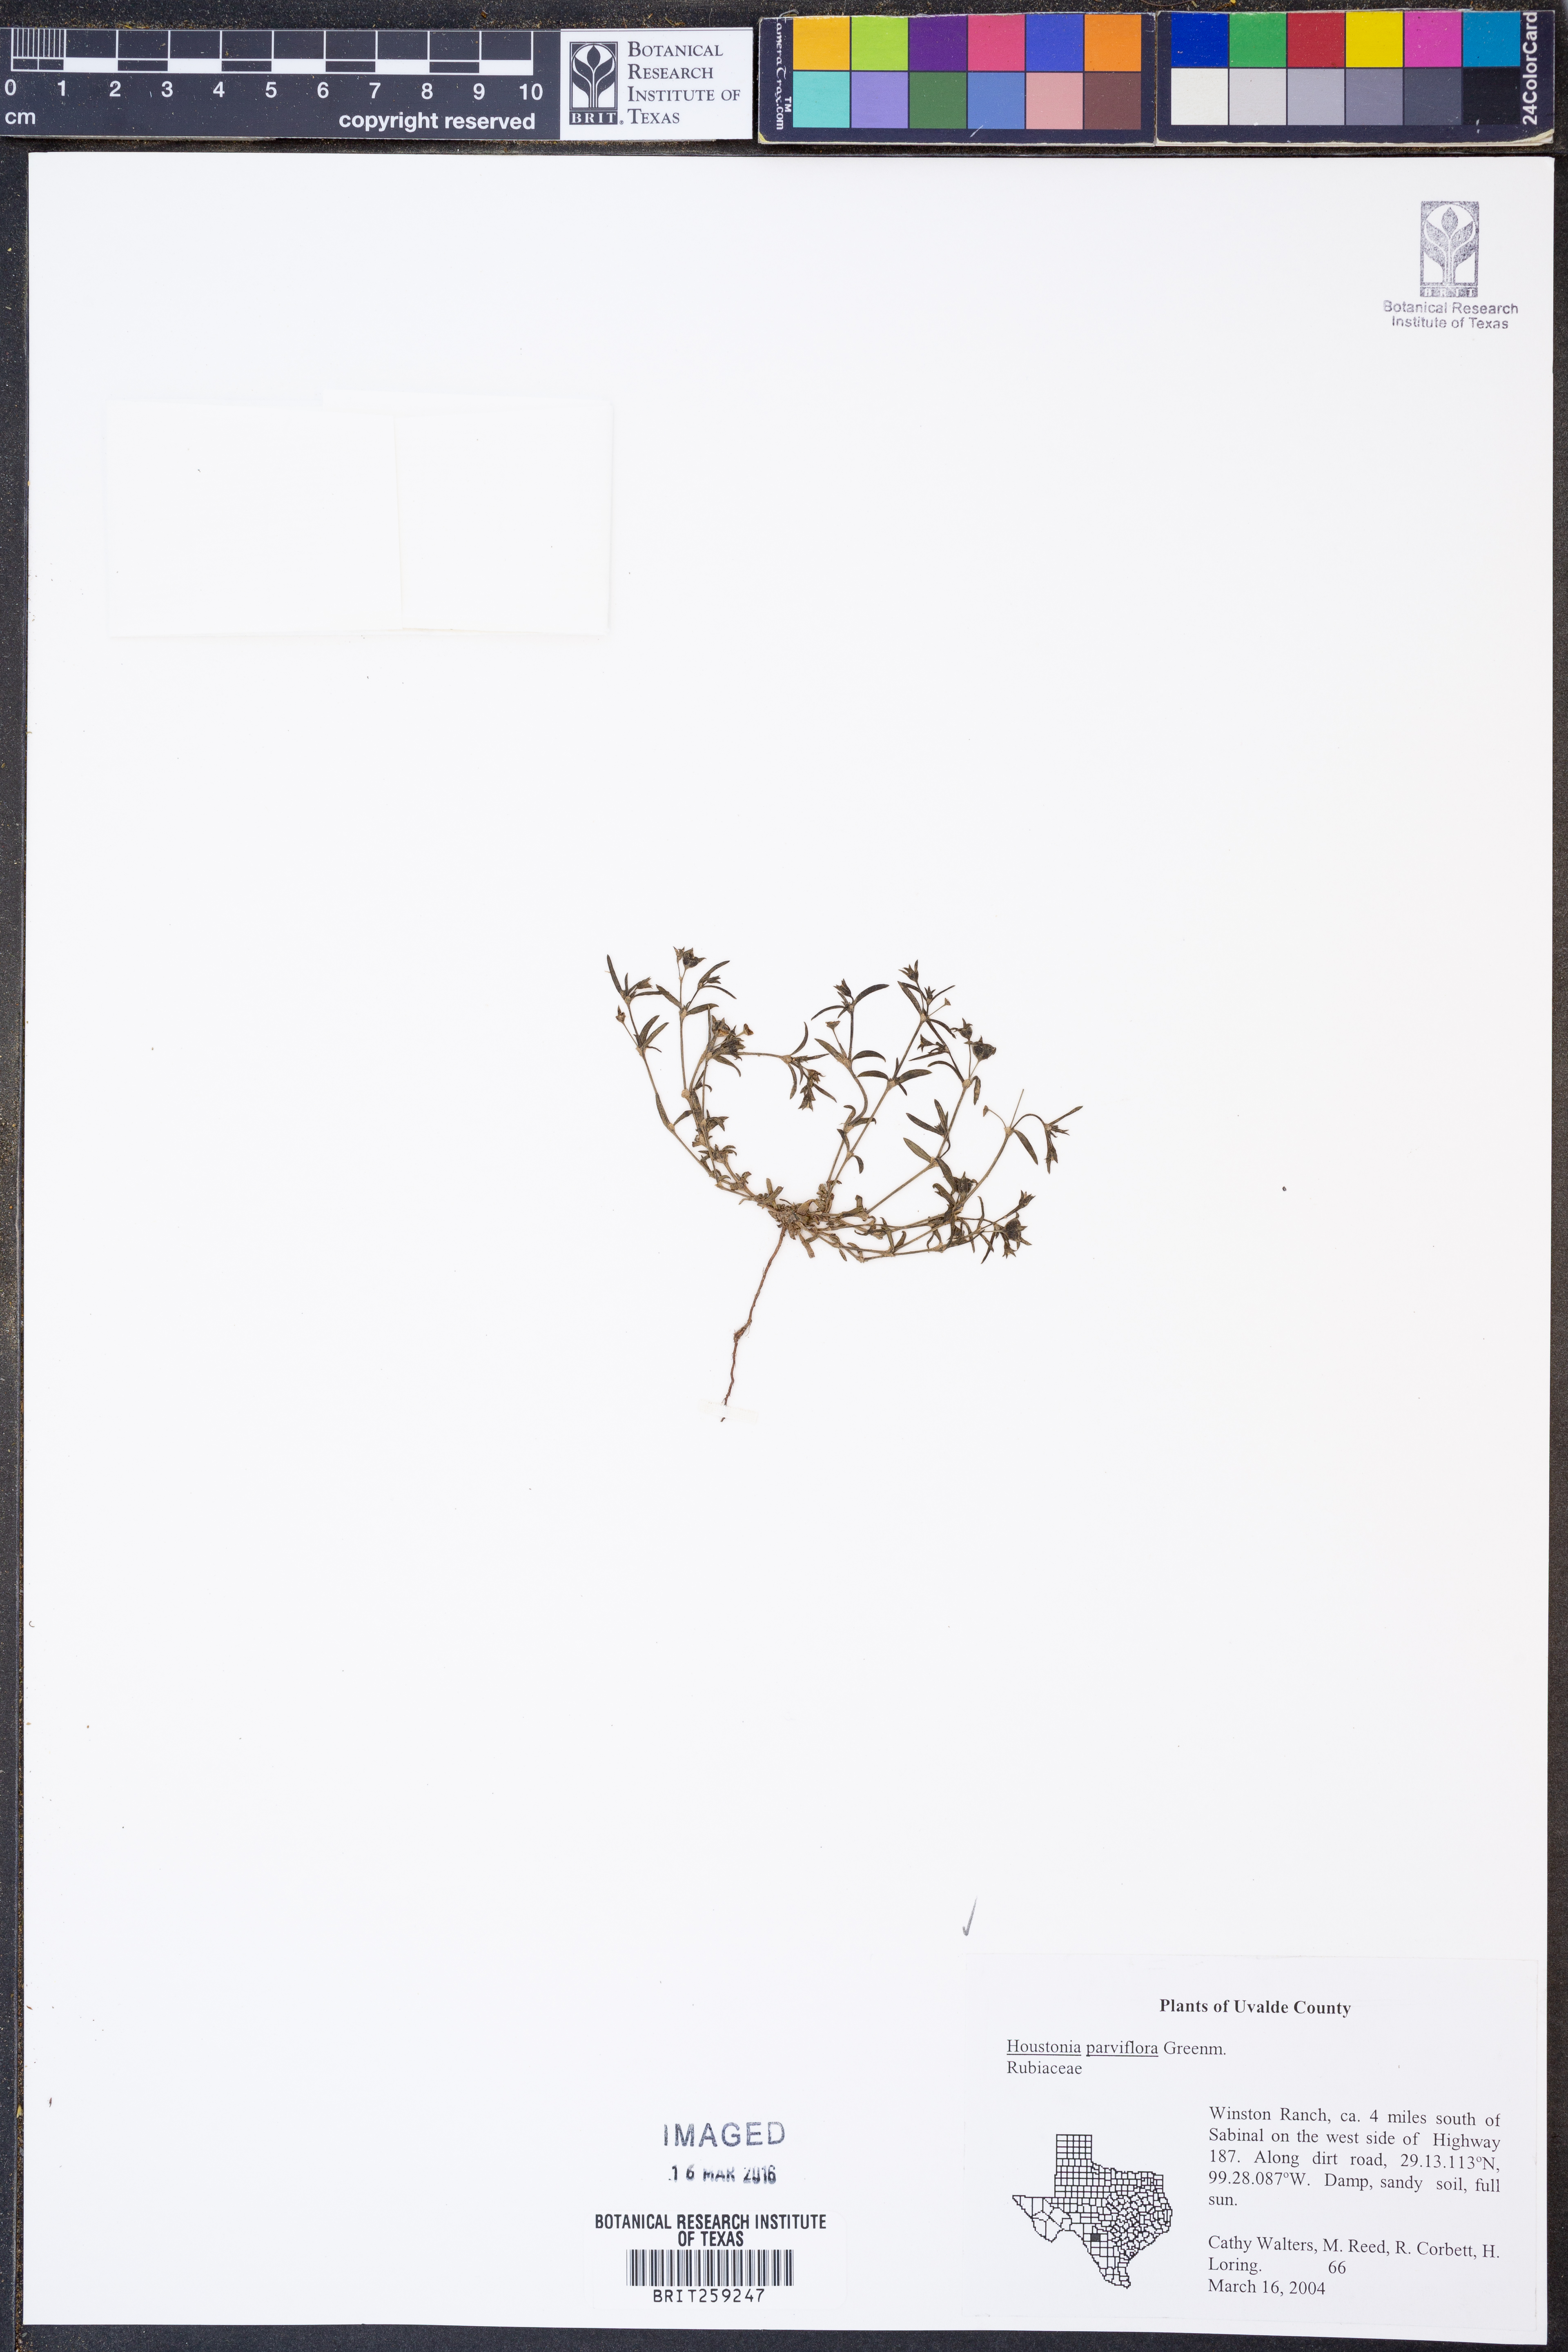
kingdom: Plantae
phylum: Tracheophyta
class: Magnoliopsida
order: Gentianales
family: Rubiaceae
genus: Houstonia
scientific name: Houstonia parviflora
